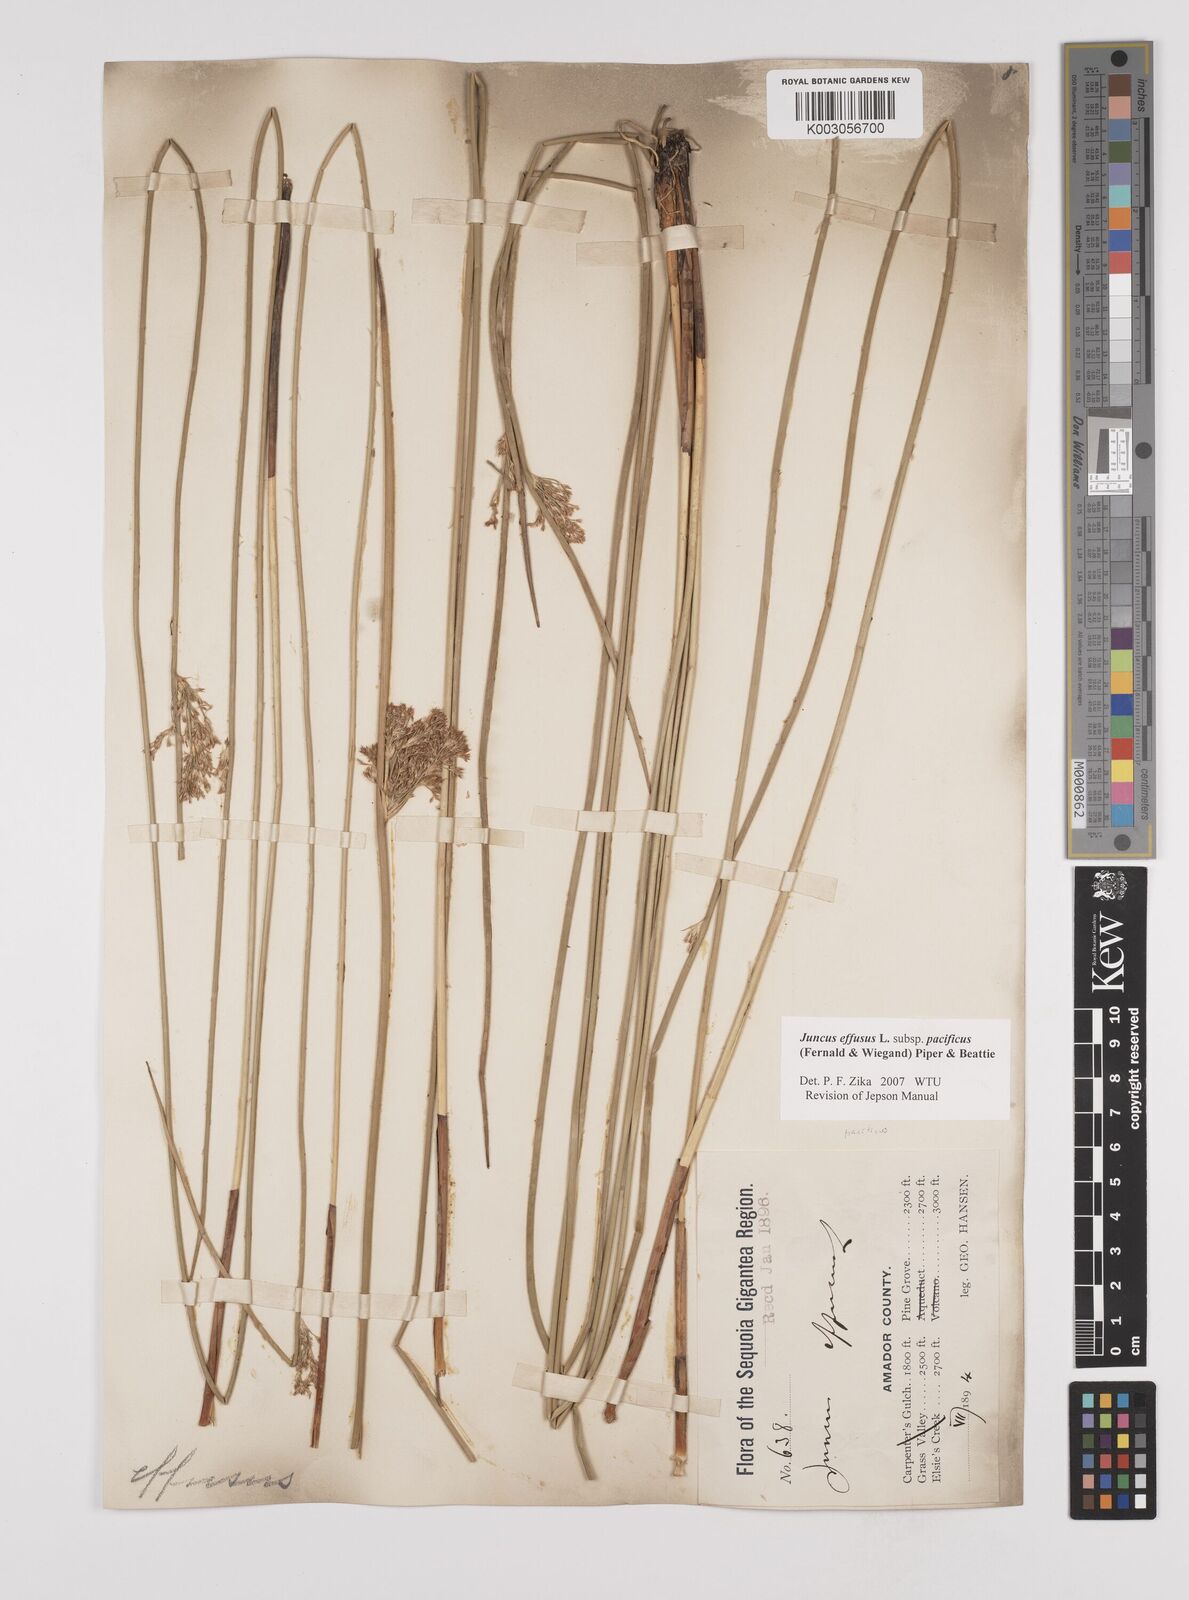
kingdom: Plantae
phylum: Tracheophyta
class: Liliopsida
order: Poales
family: Juncaceae
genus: Juncus
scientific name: Juncus effusus
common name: Soft rush
